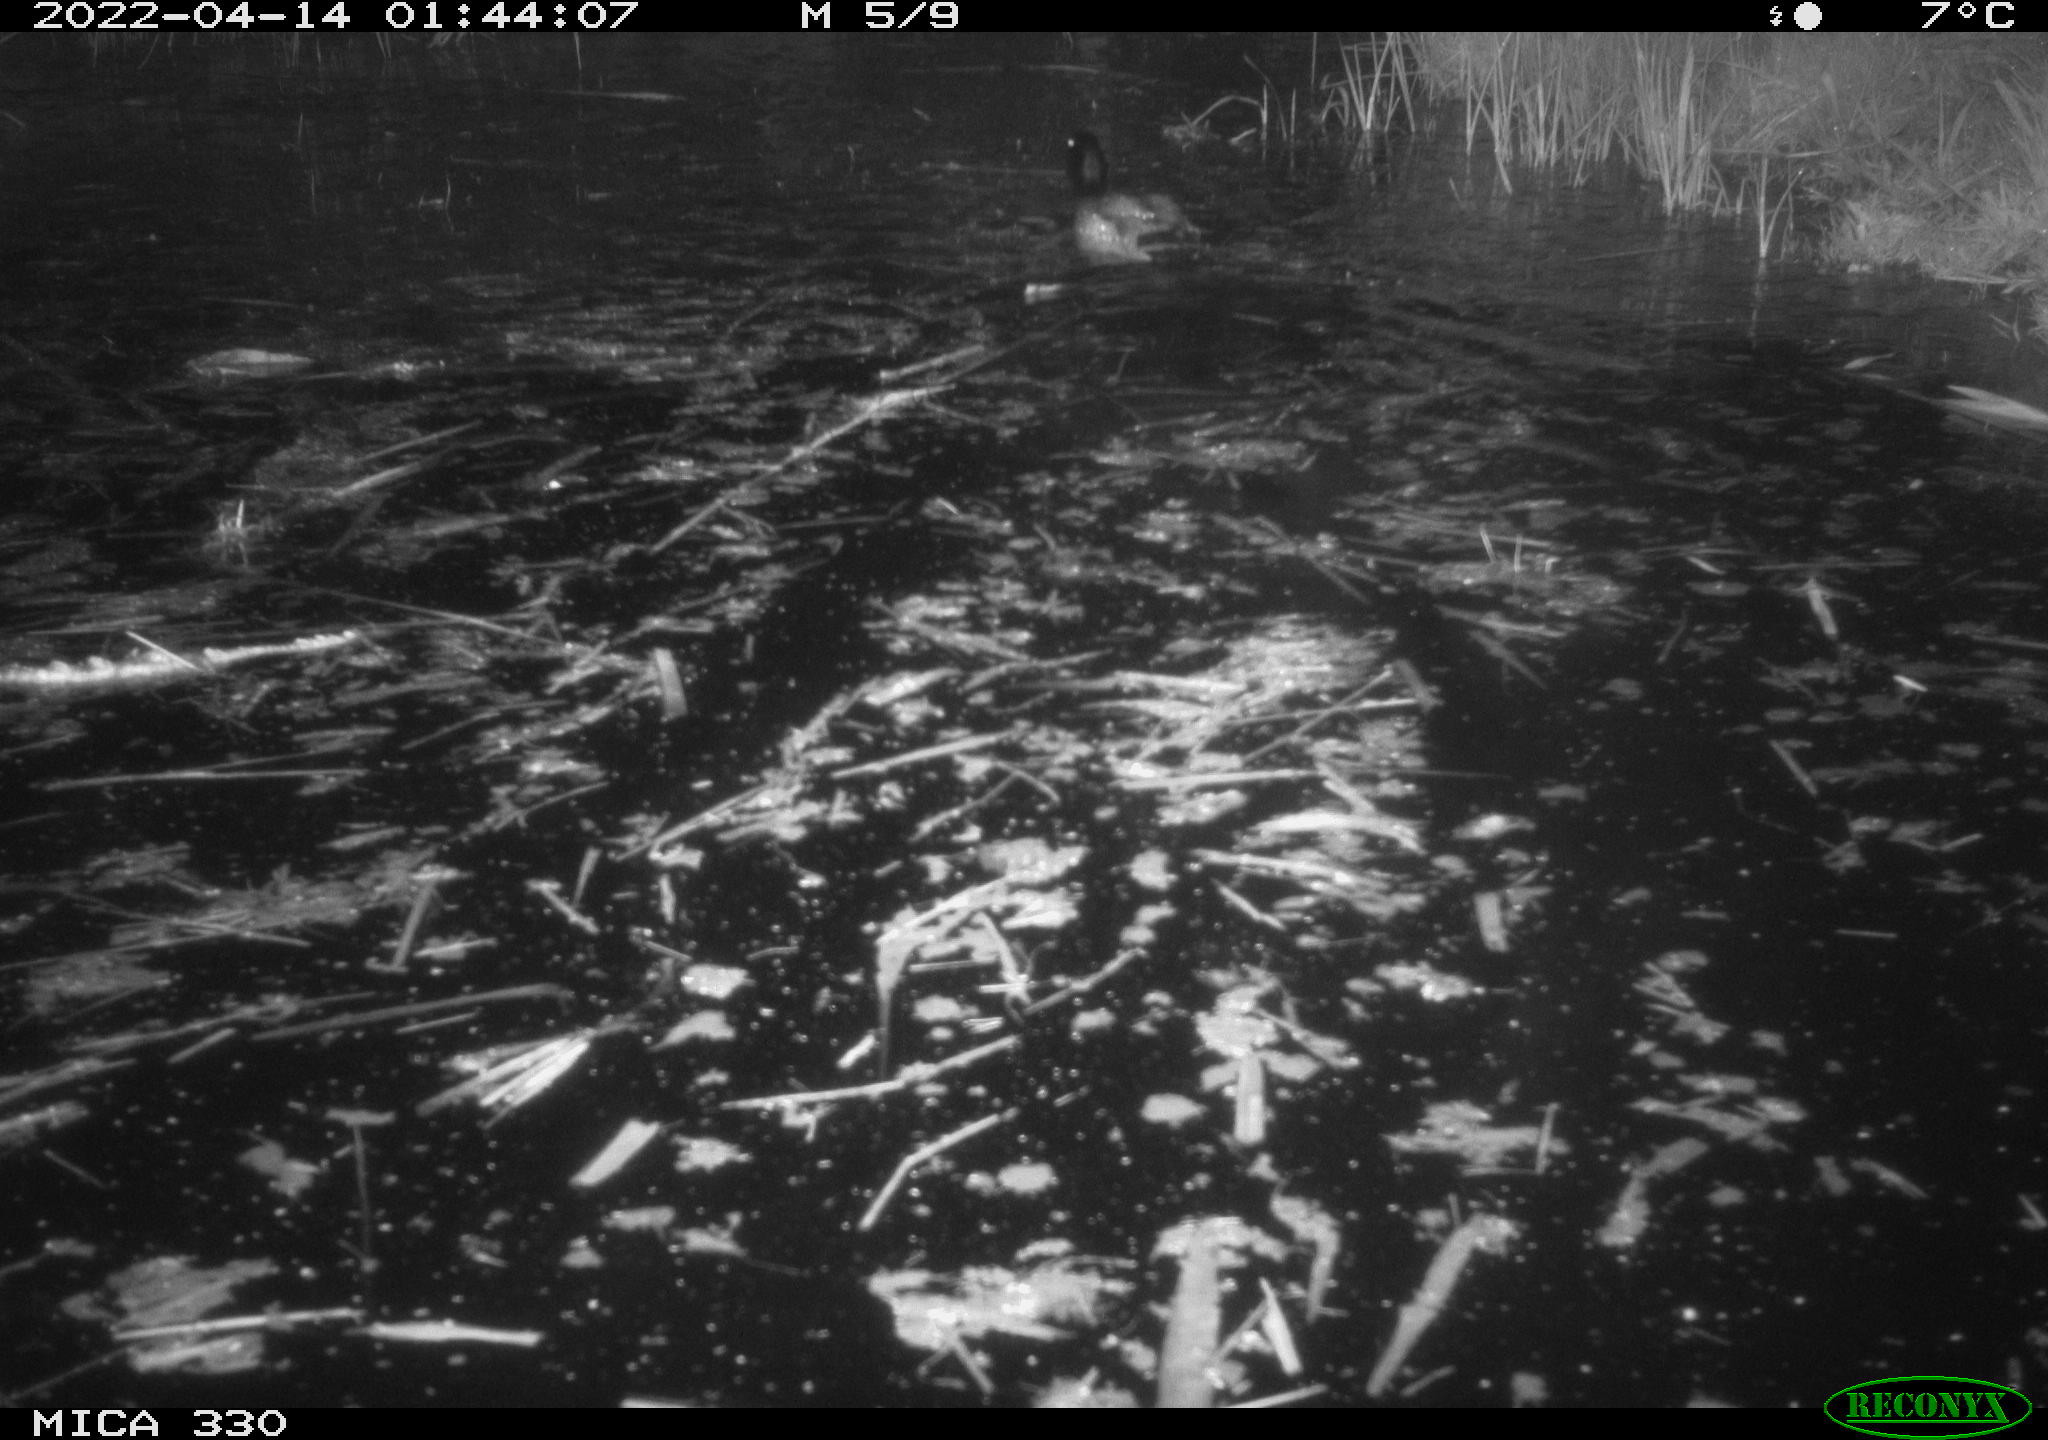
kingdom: Animalia
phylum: Chordata
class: Aves
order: Anseriformes
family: Anatidae
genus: Anas
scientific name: Anas platyrhynchos
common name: Mallard
